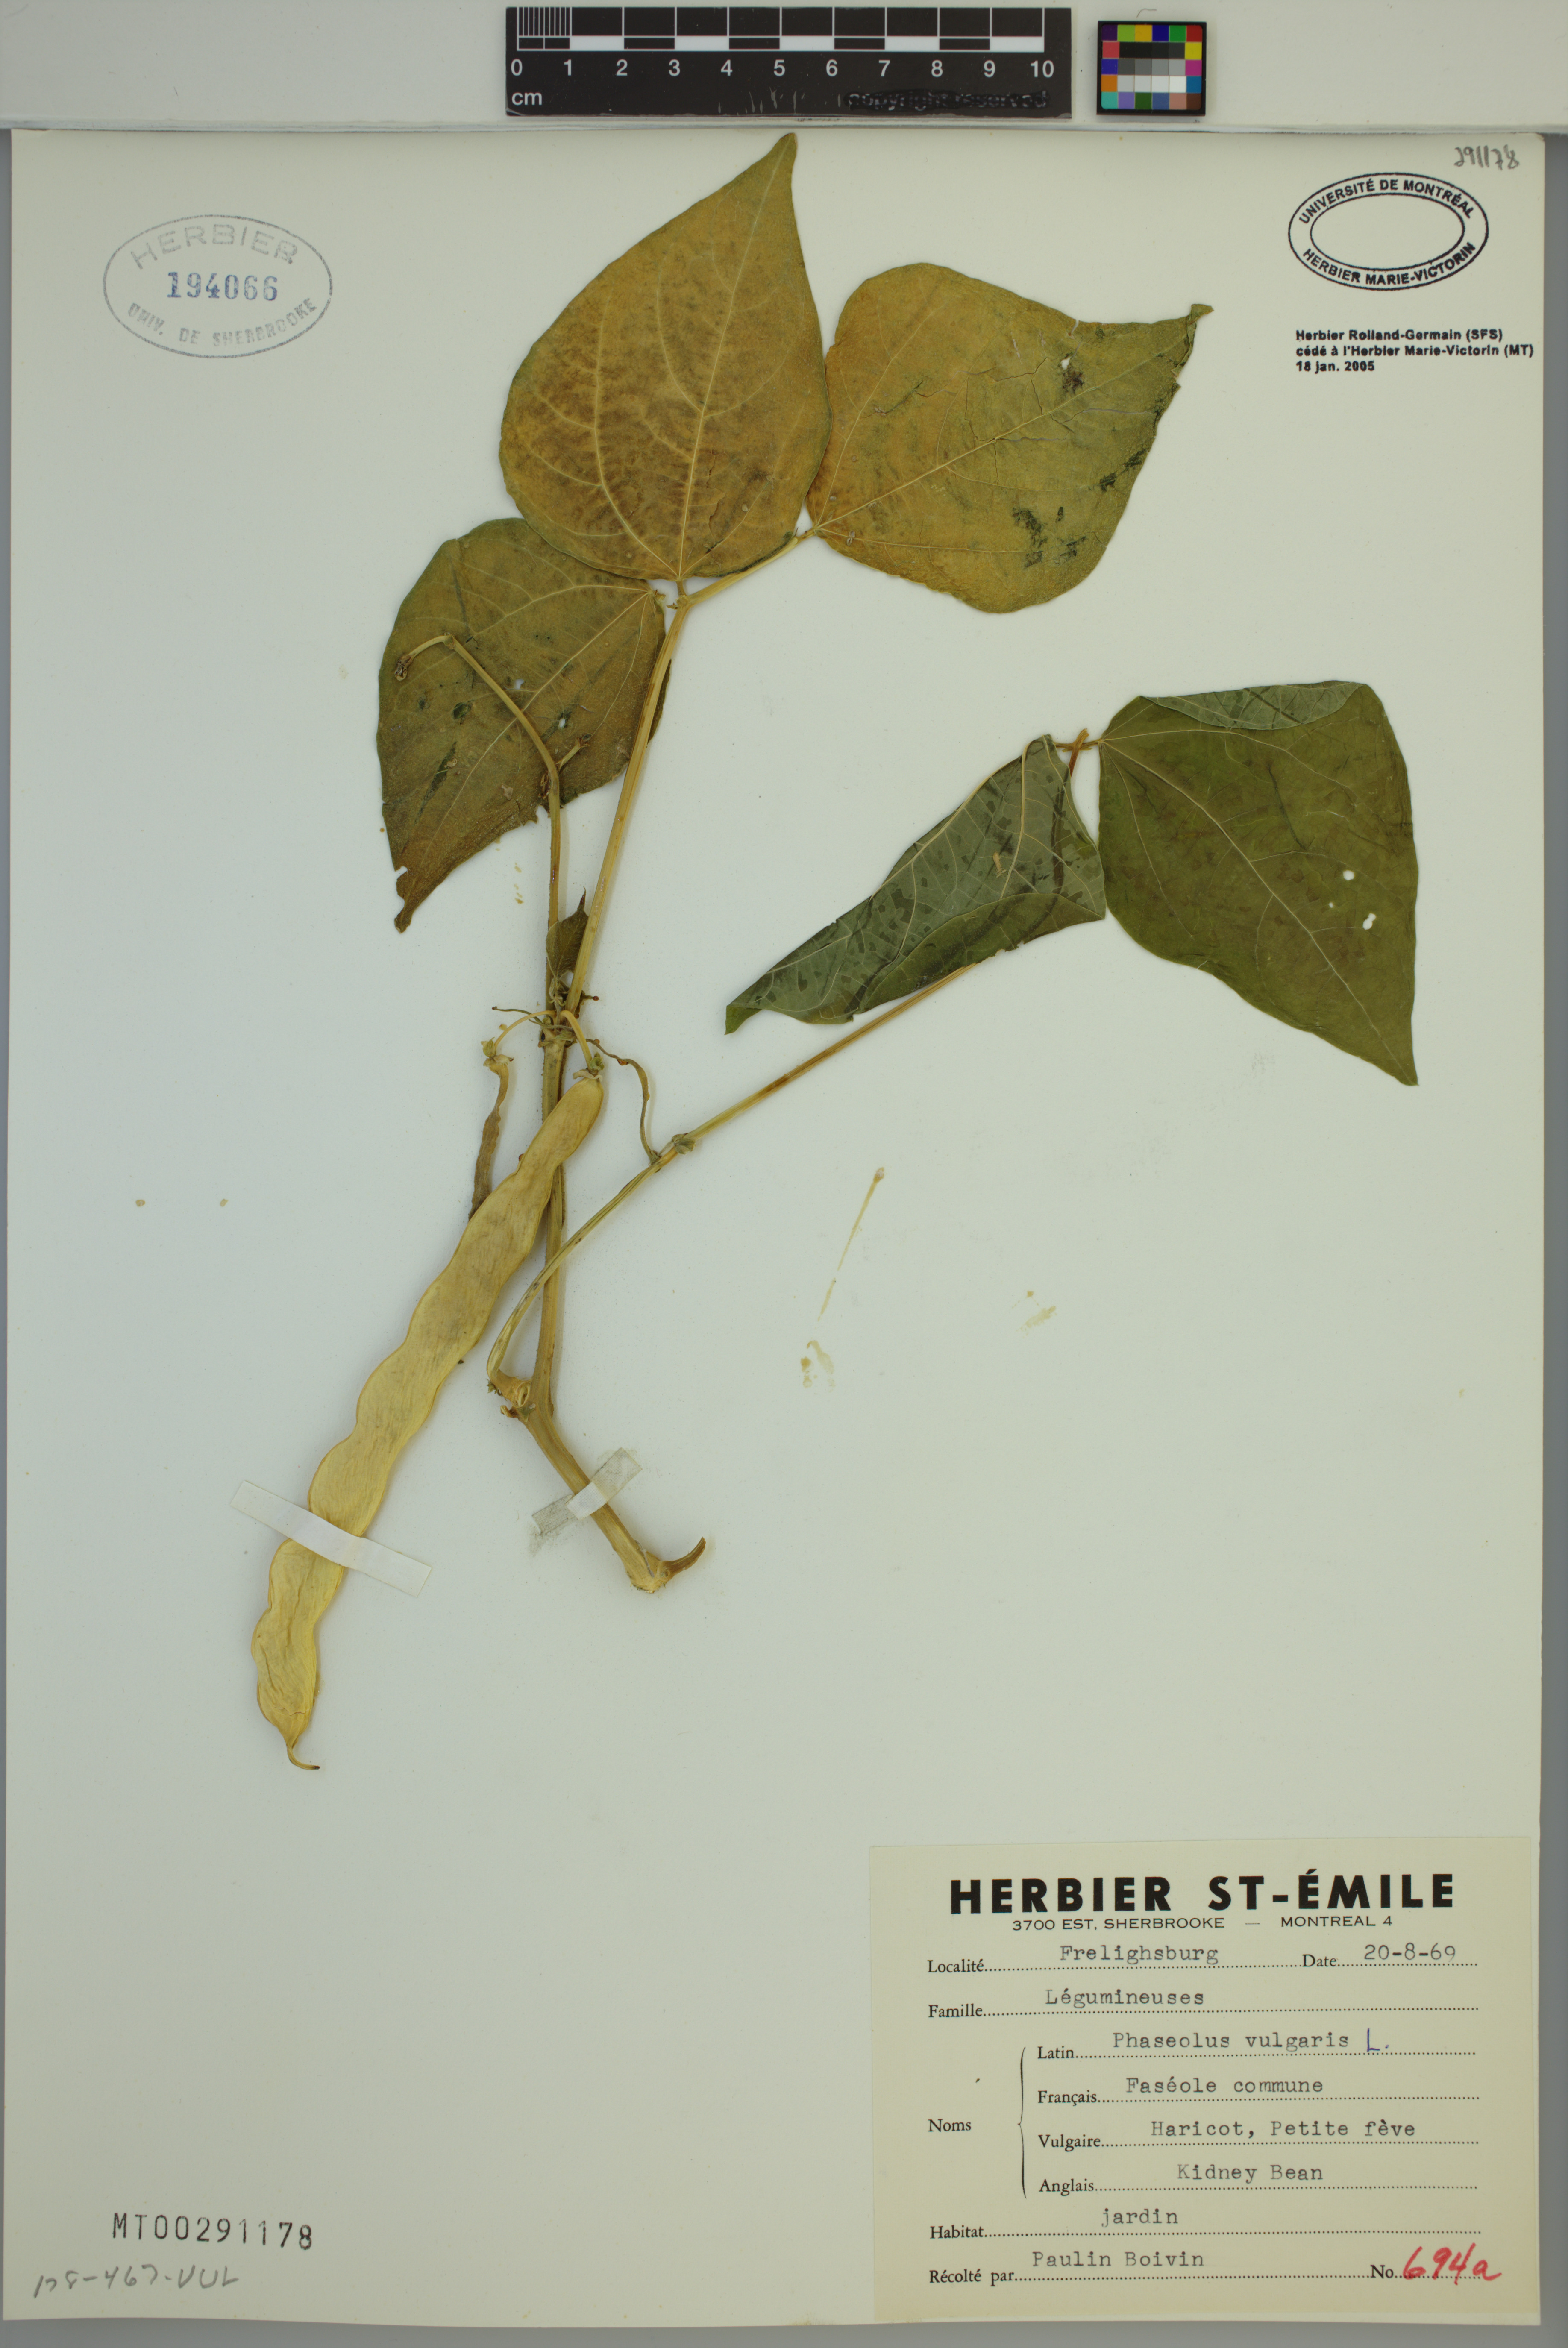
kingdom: Plantae
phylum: Tracheophyta
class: Magnoliopsida
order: Fabales
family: Fabaceae
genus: Phaseolus
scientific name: Phaseolus vulgaris
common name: Bean
